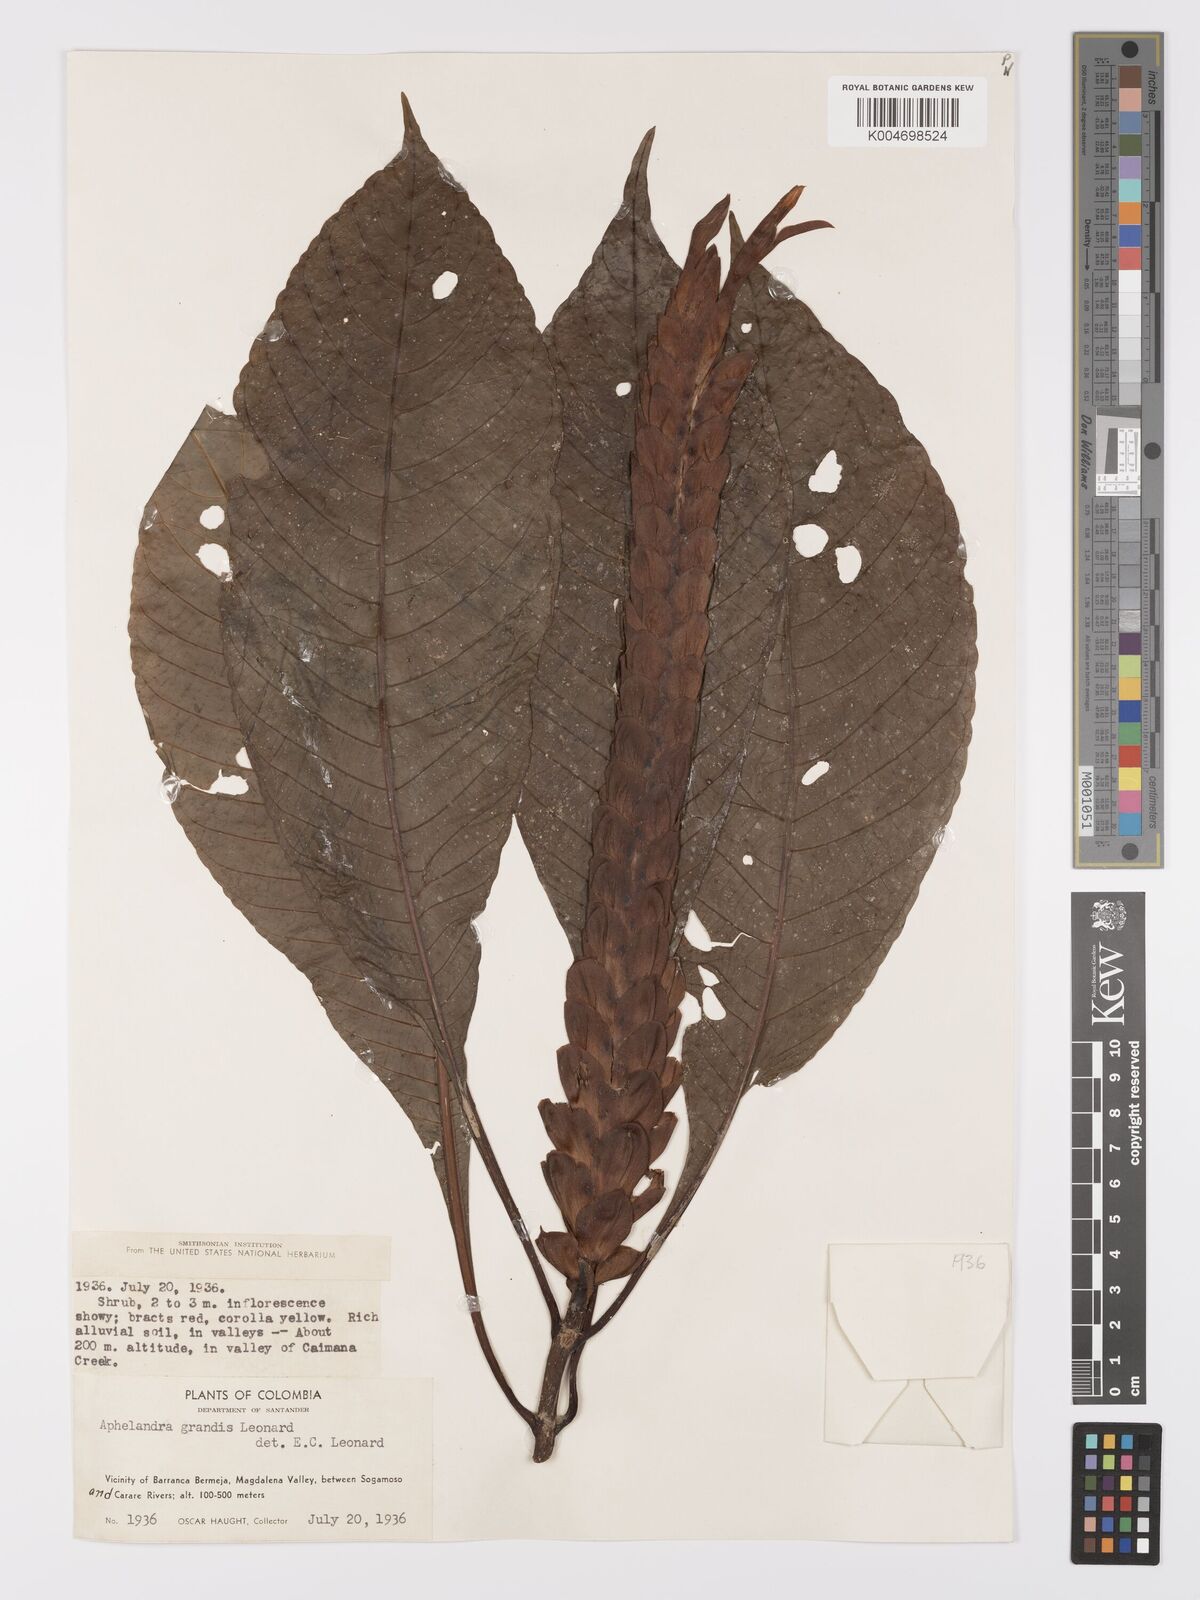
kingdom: Plantae
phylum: Tracheophyta
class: Magnoliopsida
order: Lamiales
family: Acanthaceae
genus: Aphelandra
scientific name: Aphelandra grandis
